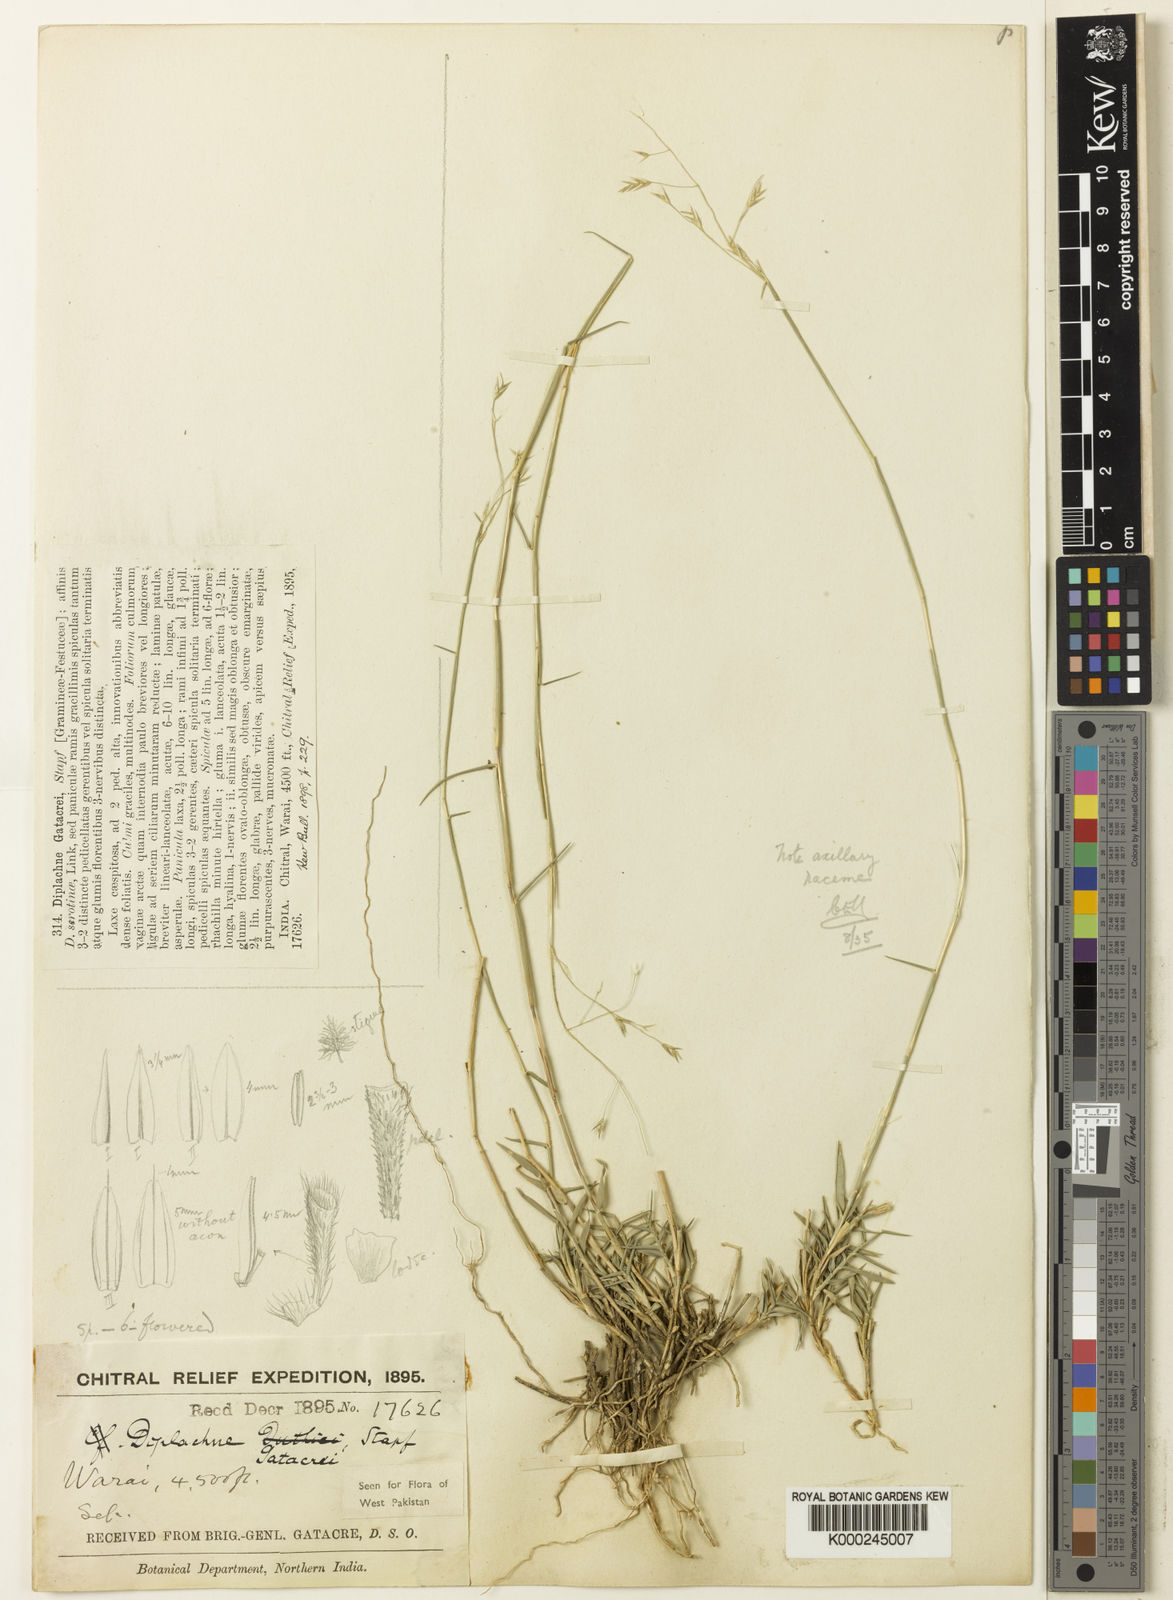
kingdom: Plantae
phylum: Tracheophyta
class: Liliopsida
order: Poales
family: Poaceae
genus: Cleistogenes
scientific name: Cleistogenes gatacrei
